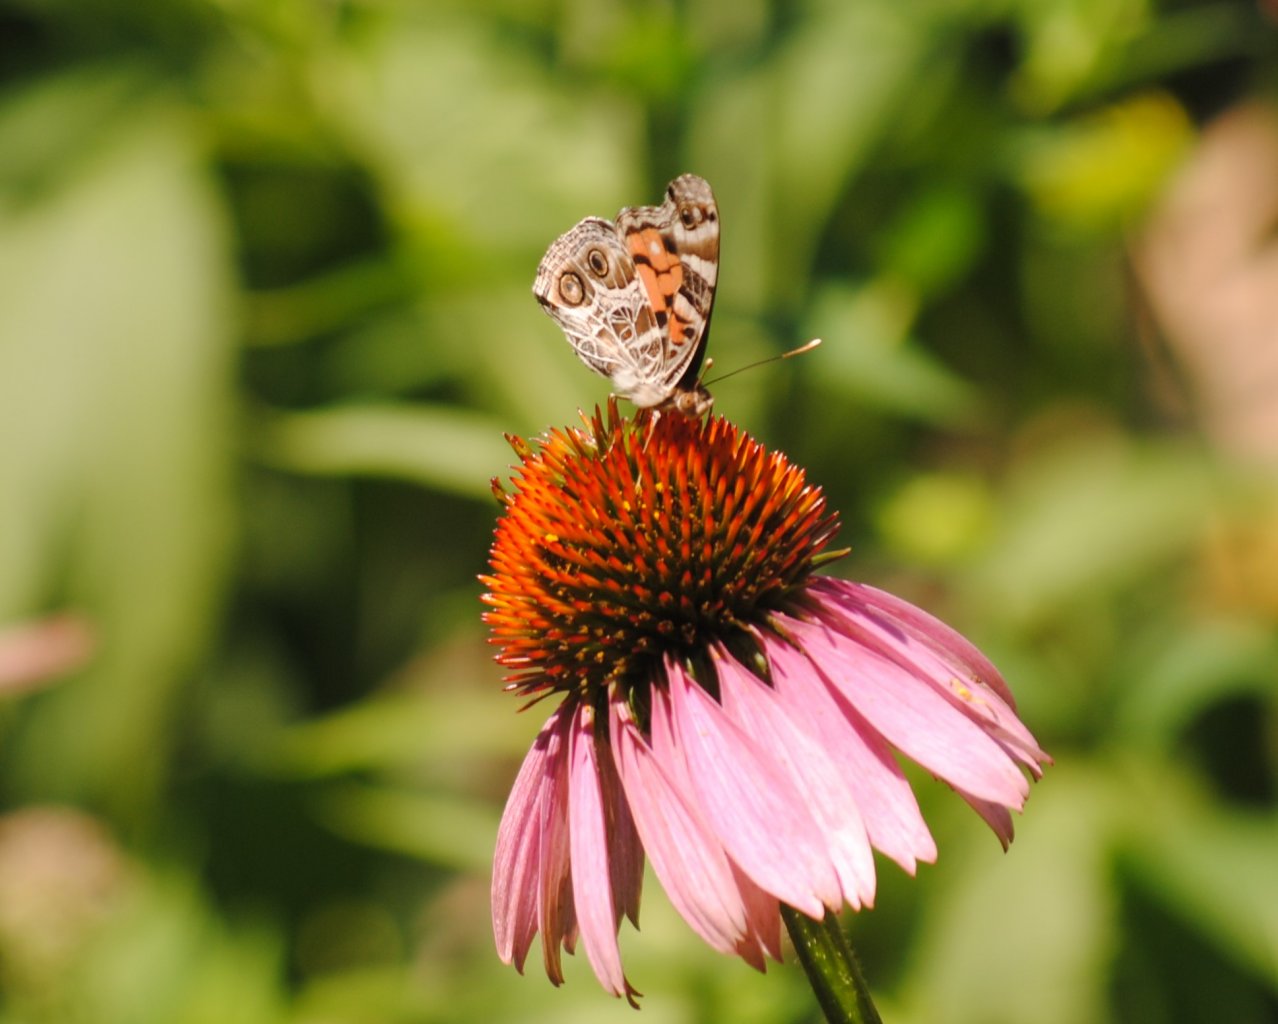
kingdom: Animalia
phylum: Arthropoda
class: Insecta
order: Lepidoptera
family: Nymphalidae
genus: Vanessa
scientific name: Vanessa virginiensis
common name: American Lady
